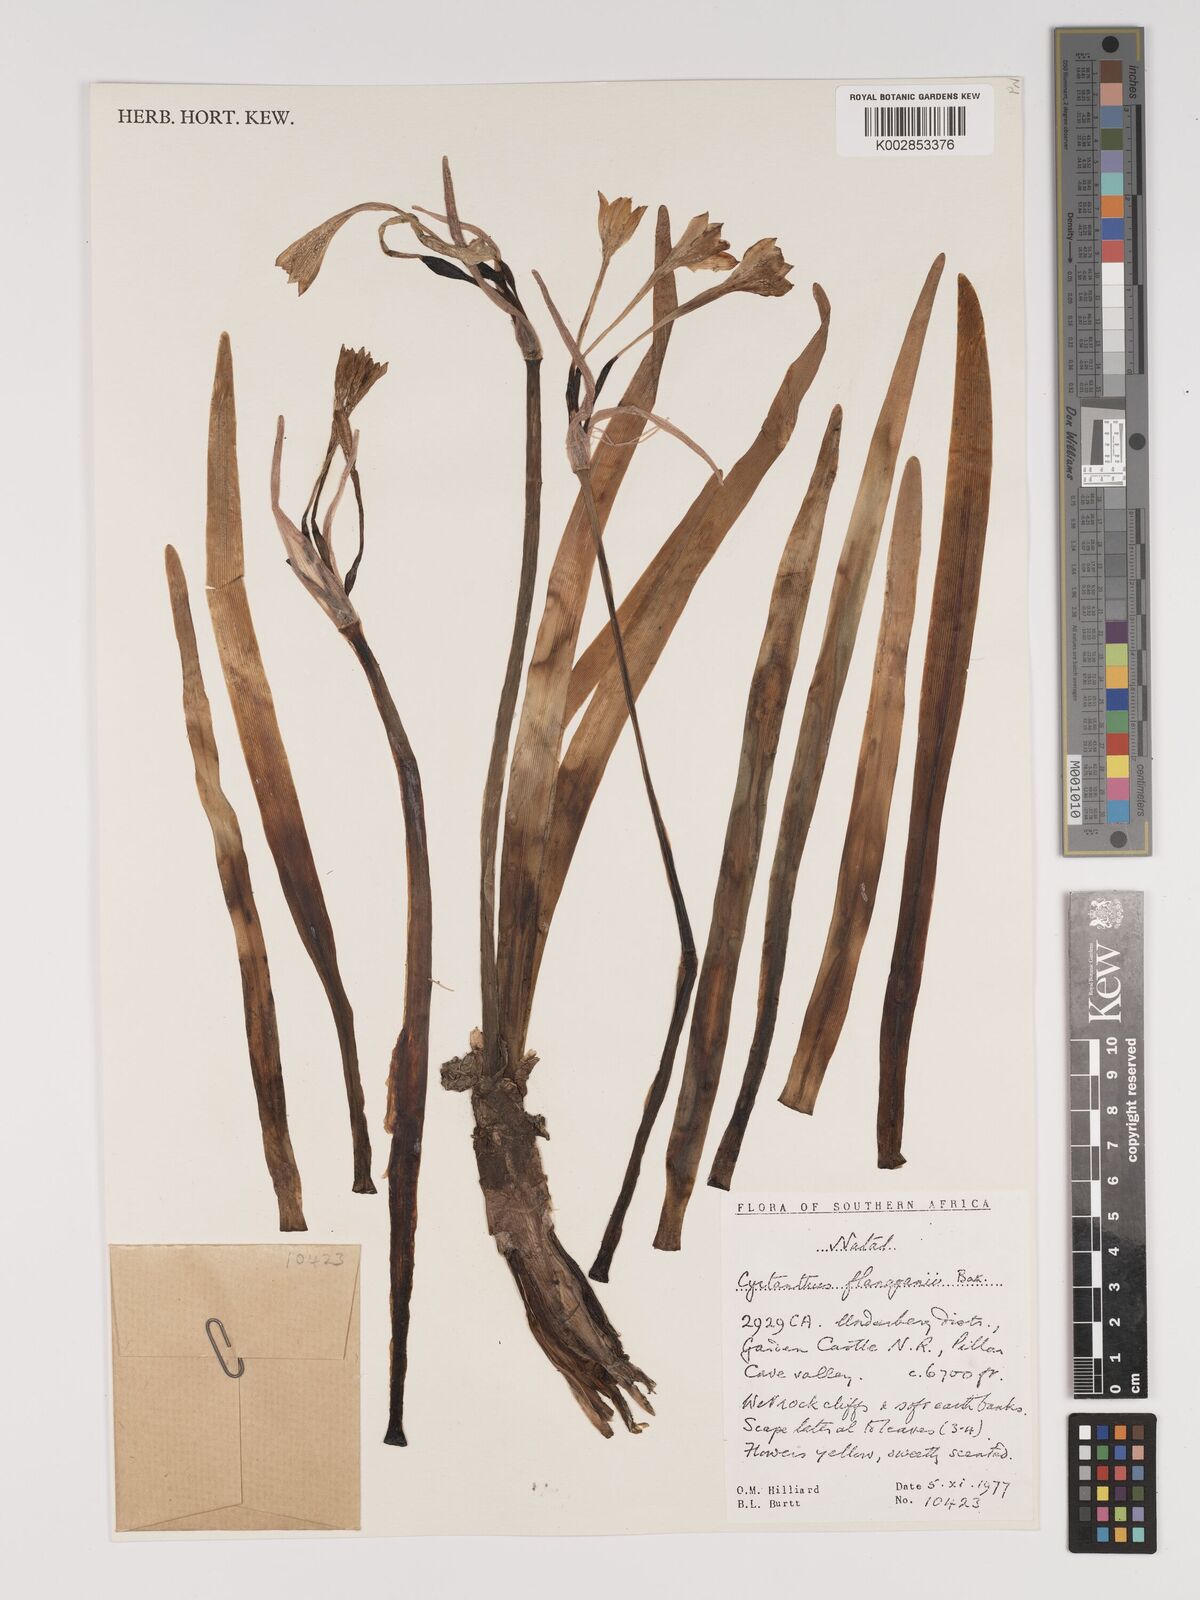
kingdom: Plantae
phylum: Tracheophyta
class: Liliopsida
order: Asparagales
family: Amaryllidaceae
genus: Cyrtanthus
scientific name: Cyrtanthus flanaganii
